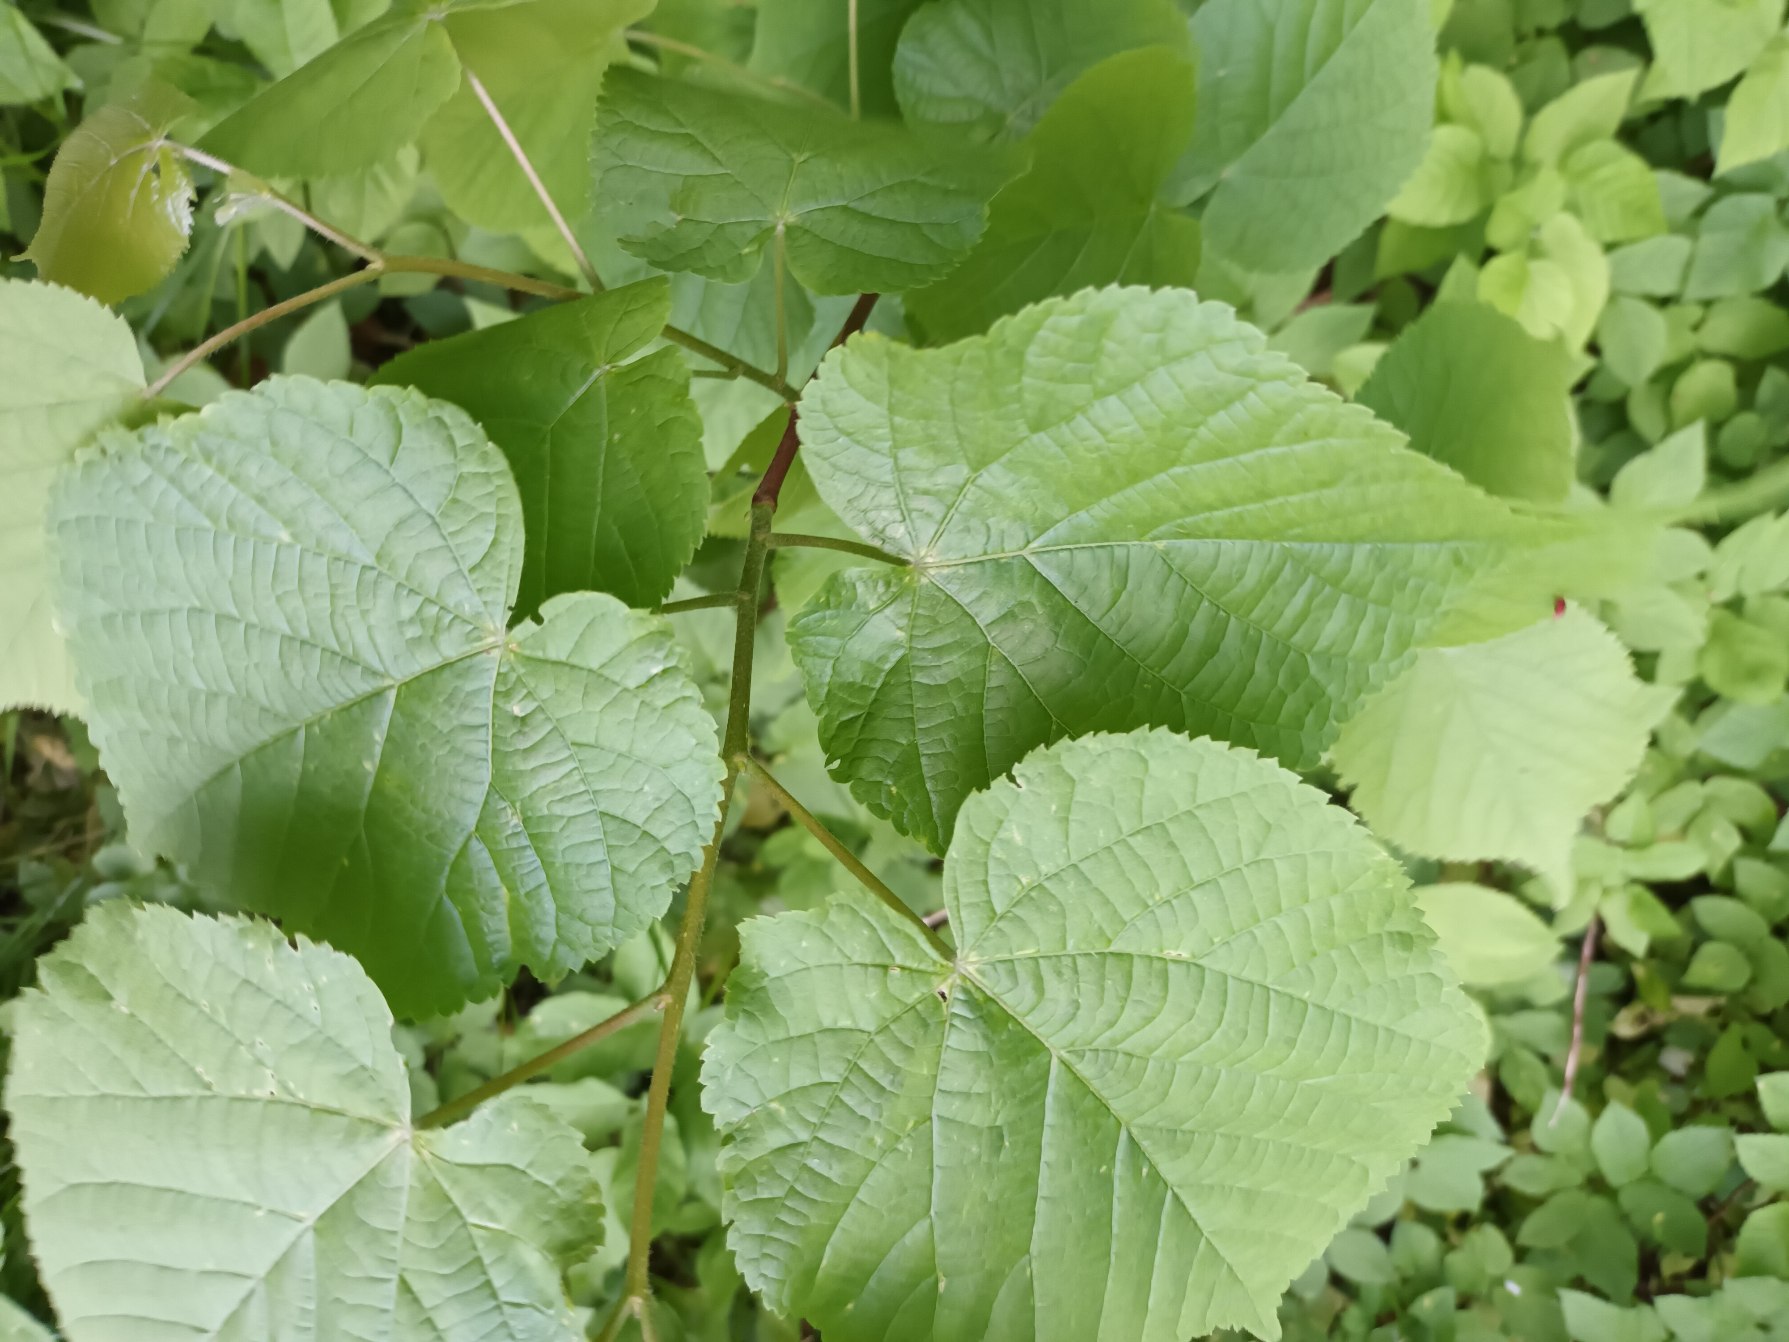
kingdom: Plantae
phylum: Tracheophyta
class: Magnoliopsida
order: Malvales
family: Malvaceae
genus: Tilia
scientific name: Tilia platyphyllos
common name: Storbladet lind
